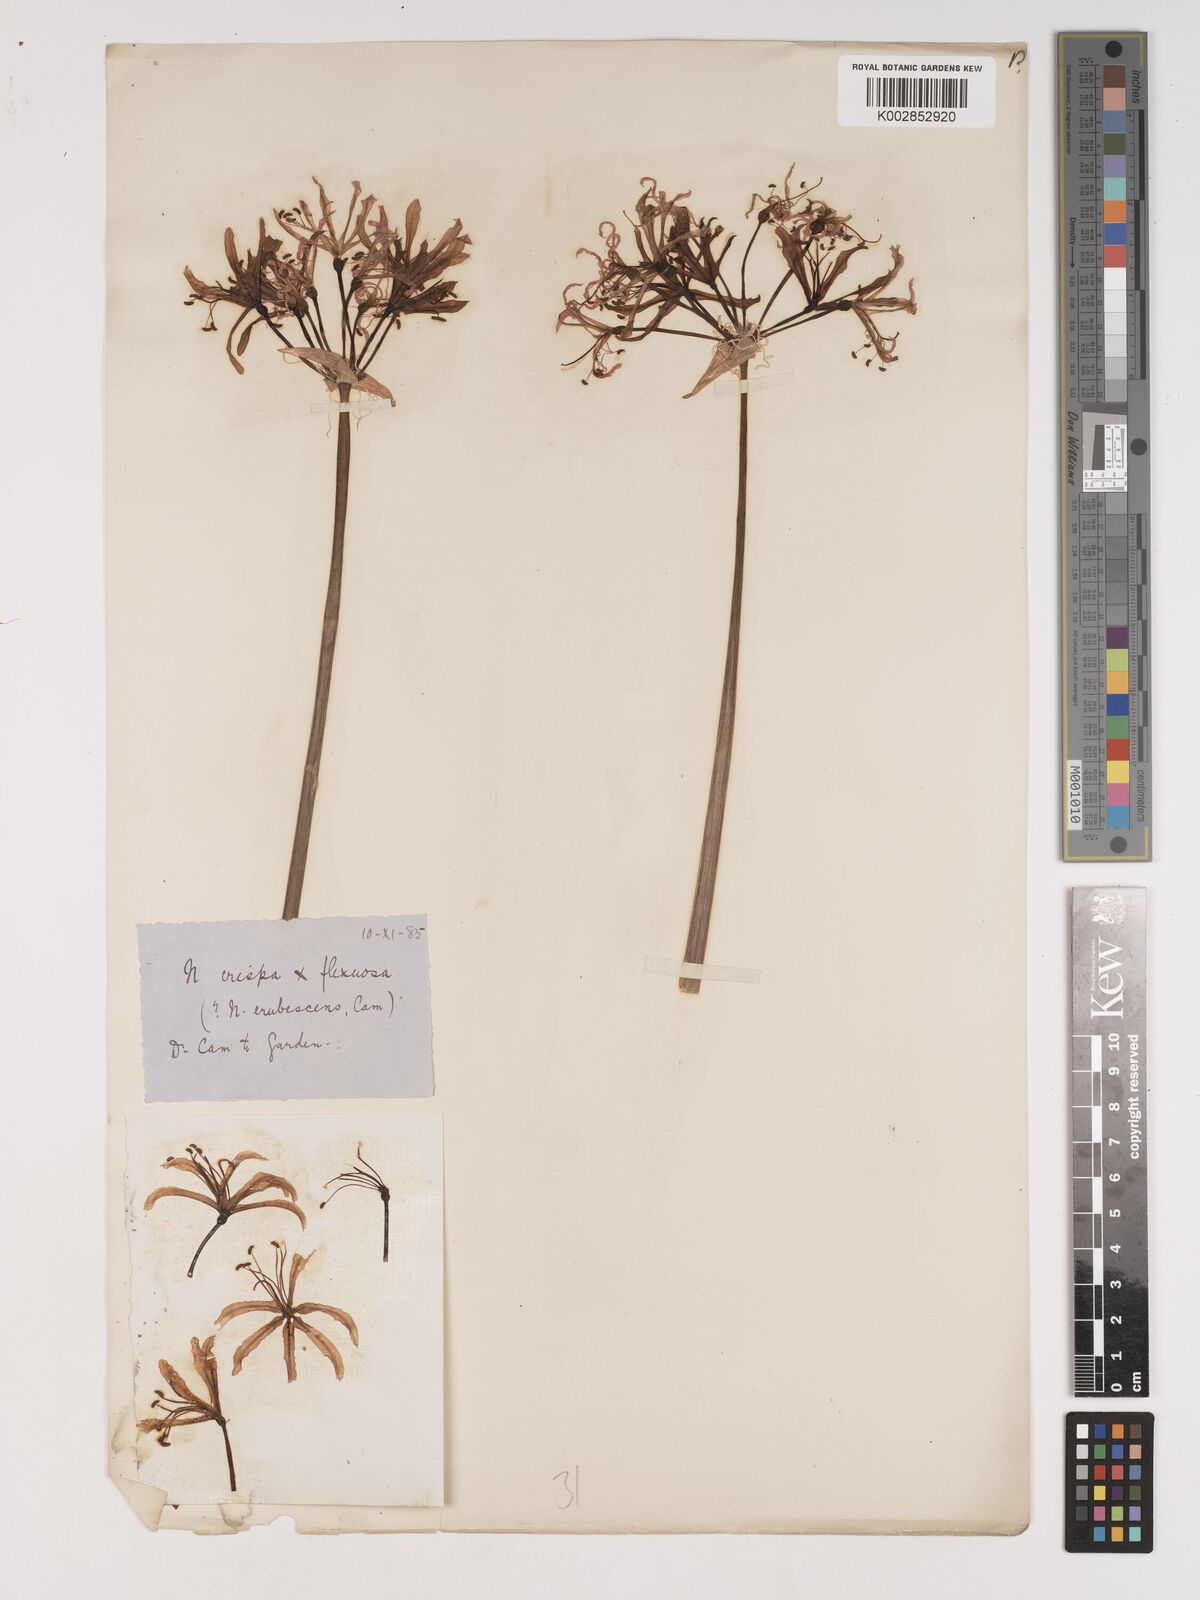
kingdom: Plantae
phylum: Tracheophyta
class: Liliopsida
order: Asparagales
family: Amaryllidaceae
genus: Nerine
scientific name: Nerine versicolor
